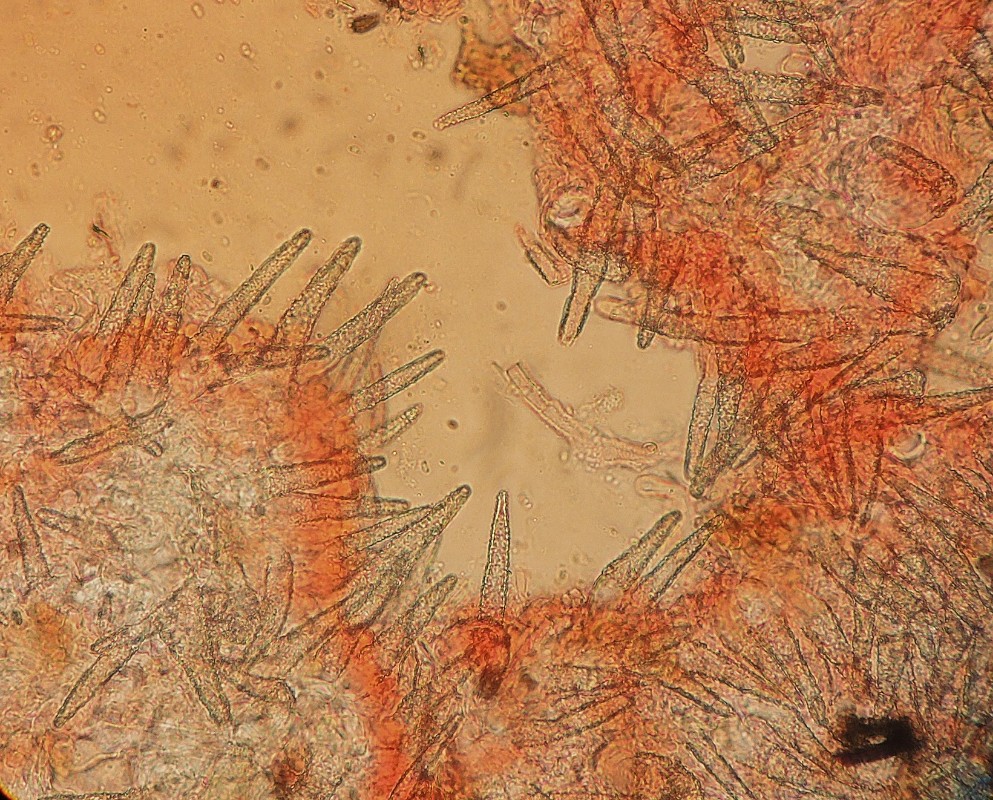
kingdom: Fungi
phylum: Basidiomycota
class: Agaricomycetes
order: Polyporales
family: Meruliaceae
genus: Scopuloides
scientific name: Scopuloides rimosa
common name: dughinde
